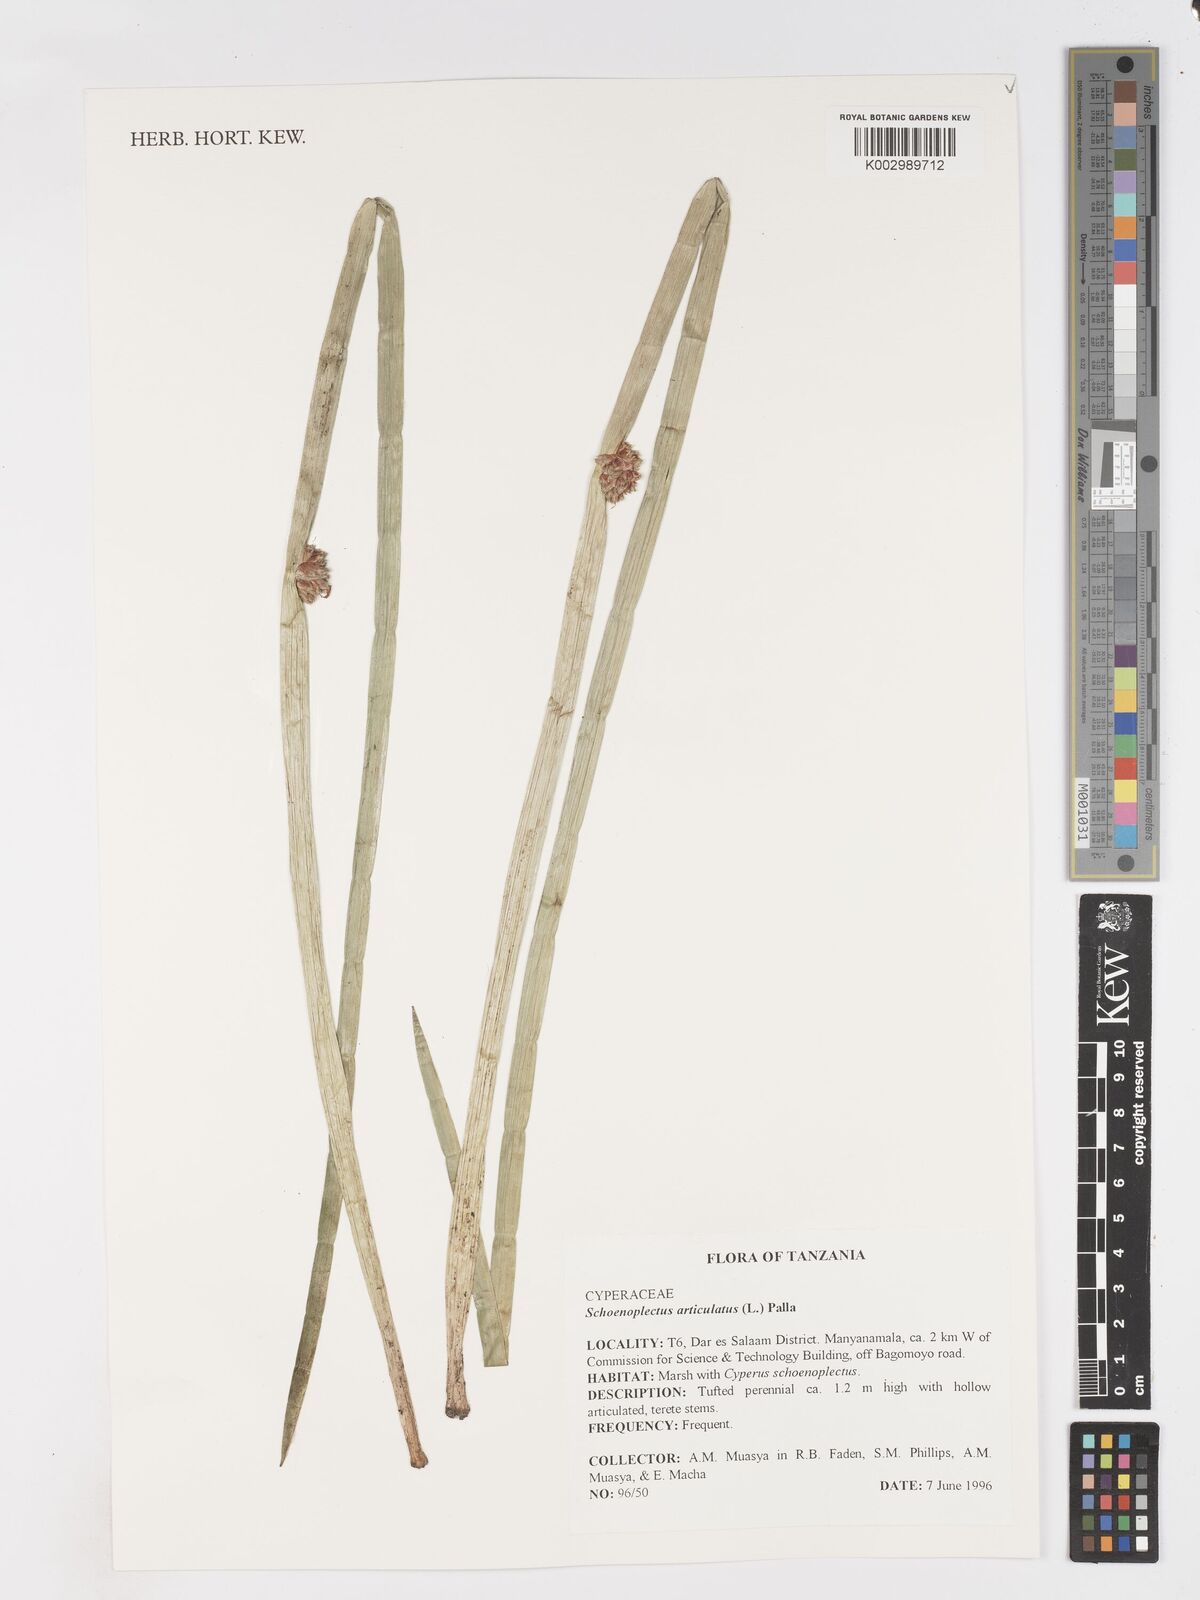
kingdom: Plantae
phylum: Tracheophyta
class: Liliopsida
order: Poales
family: Cyperaceae
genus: Schoenoplectiella
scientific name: Schoenoplectiella articulata
